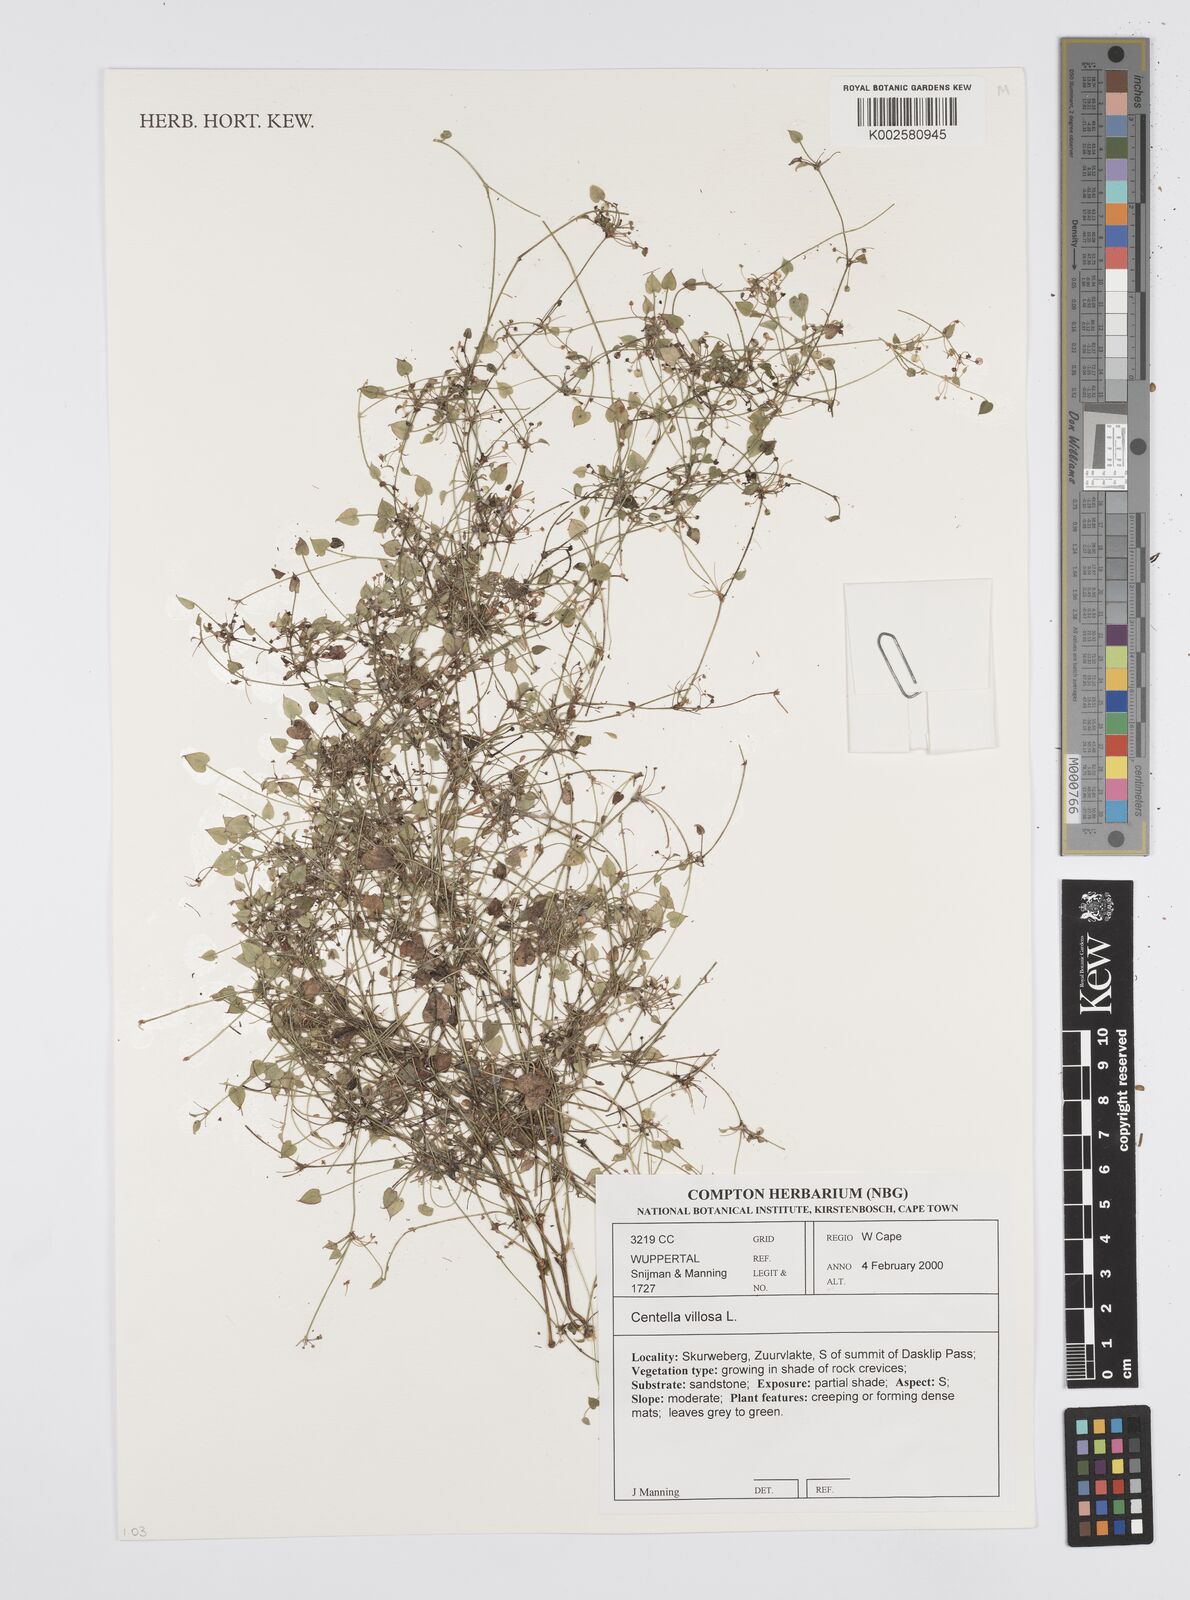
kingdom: Plantae
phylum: Tracheophyta
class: Magnoliopsida
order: Apiales
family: Apiaceae
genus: Centella
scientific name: Centella villosa
